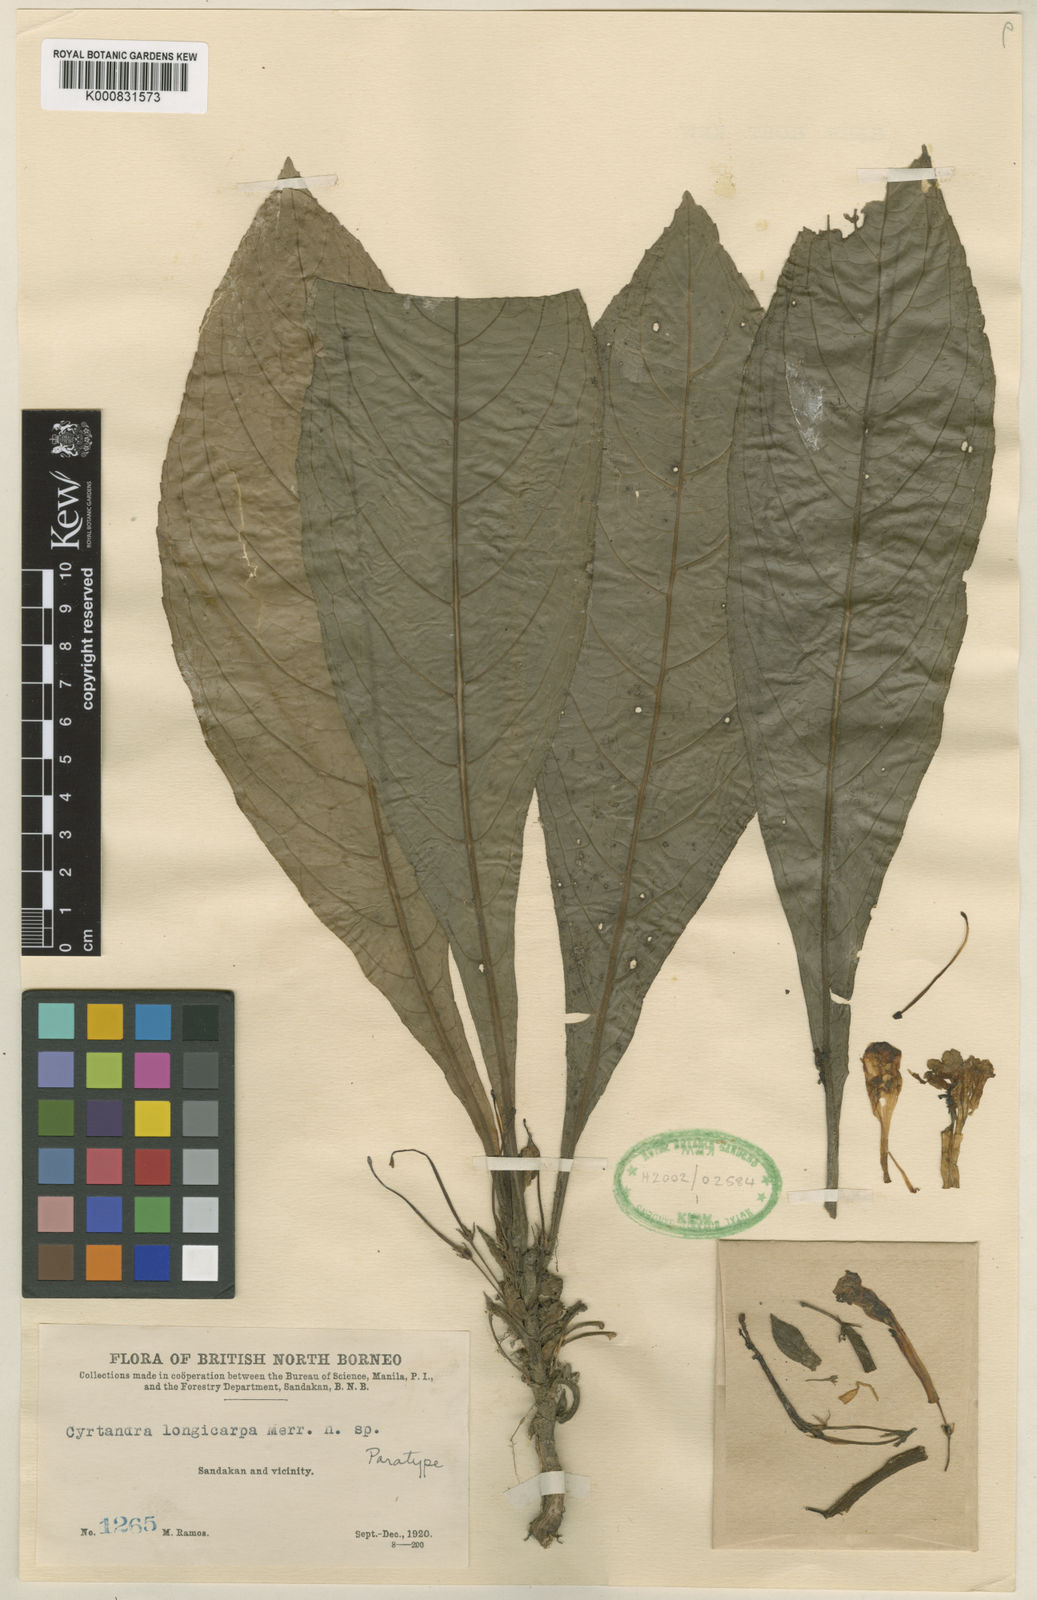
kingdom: Plantae
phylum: Tracheophyta
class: Magnoliopsida
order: Lamiales
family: Gesneriaceae
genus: Cyrtandra
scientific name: Cyrtandra longicarpa
